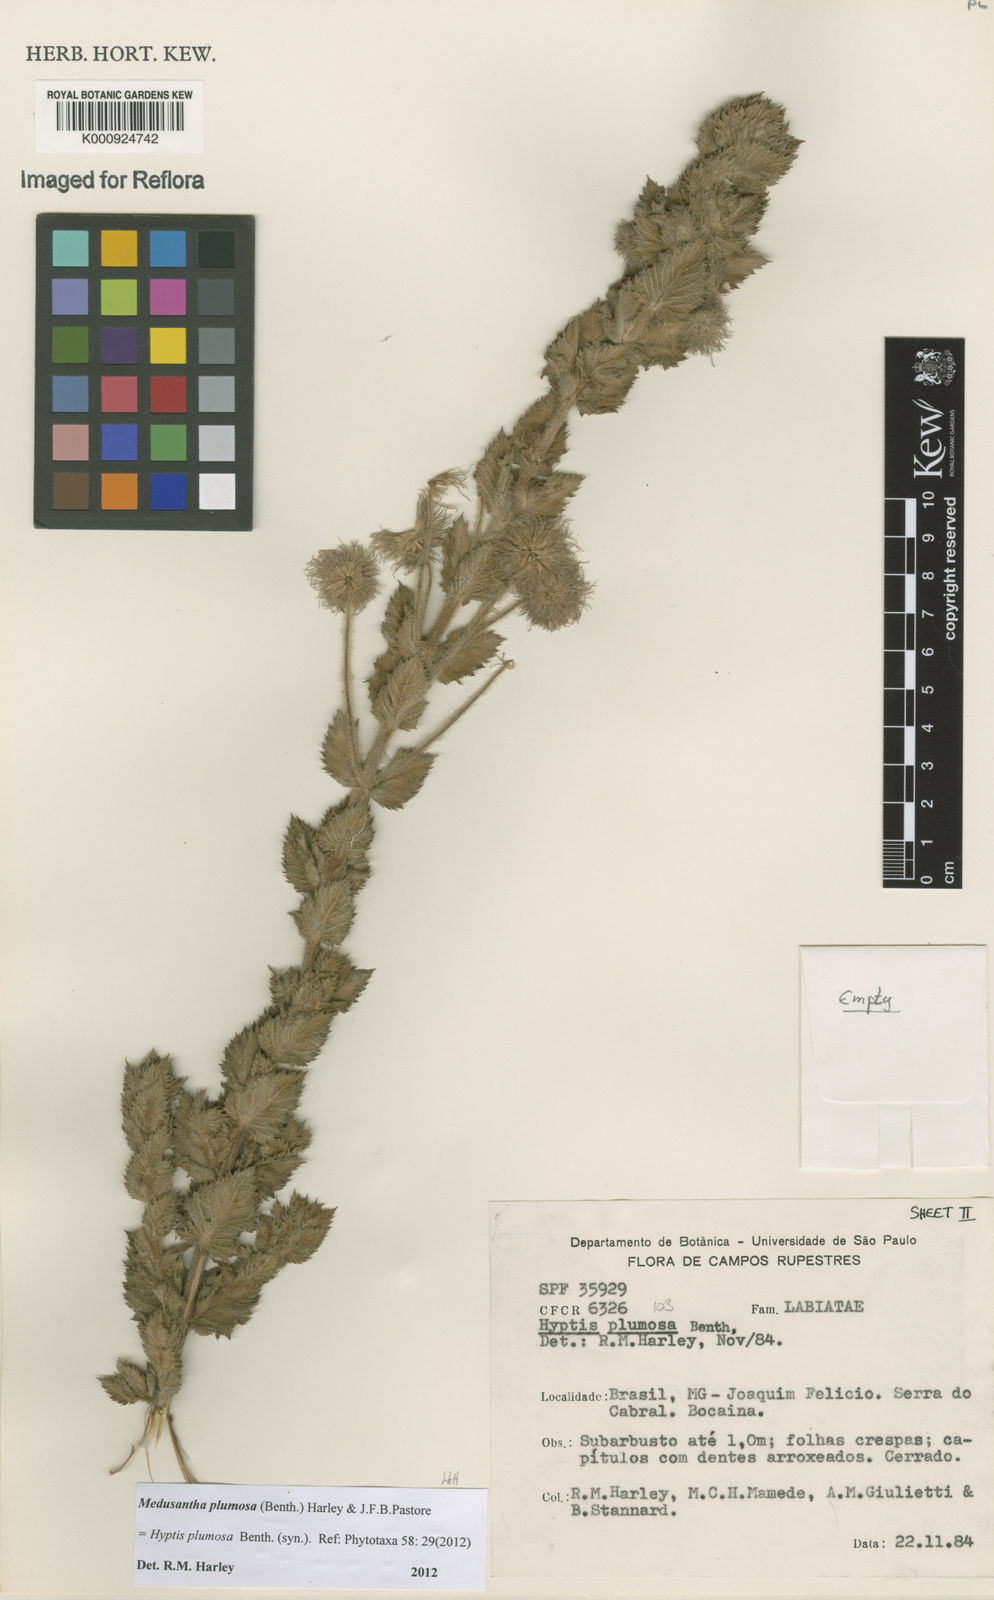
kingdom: Plantae
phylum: Tracheophyta
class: Magnoliopsida
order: Lamiales
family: Lamiaceae
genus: Medusantha
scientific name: Medusantha plumosa
